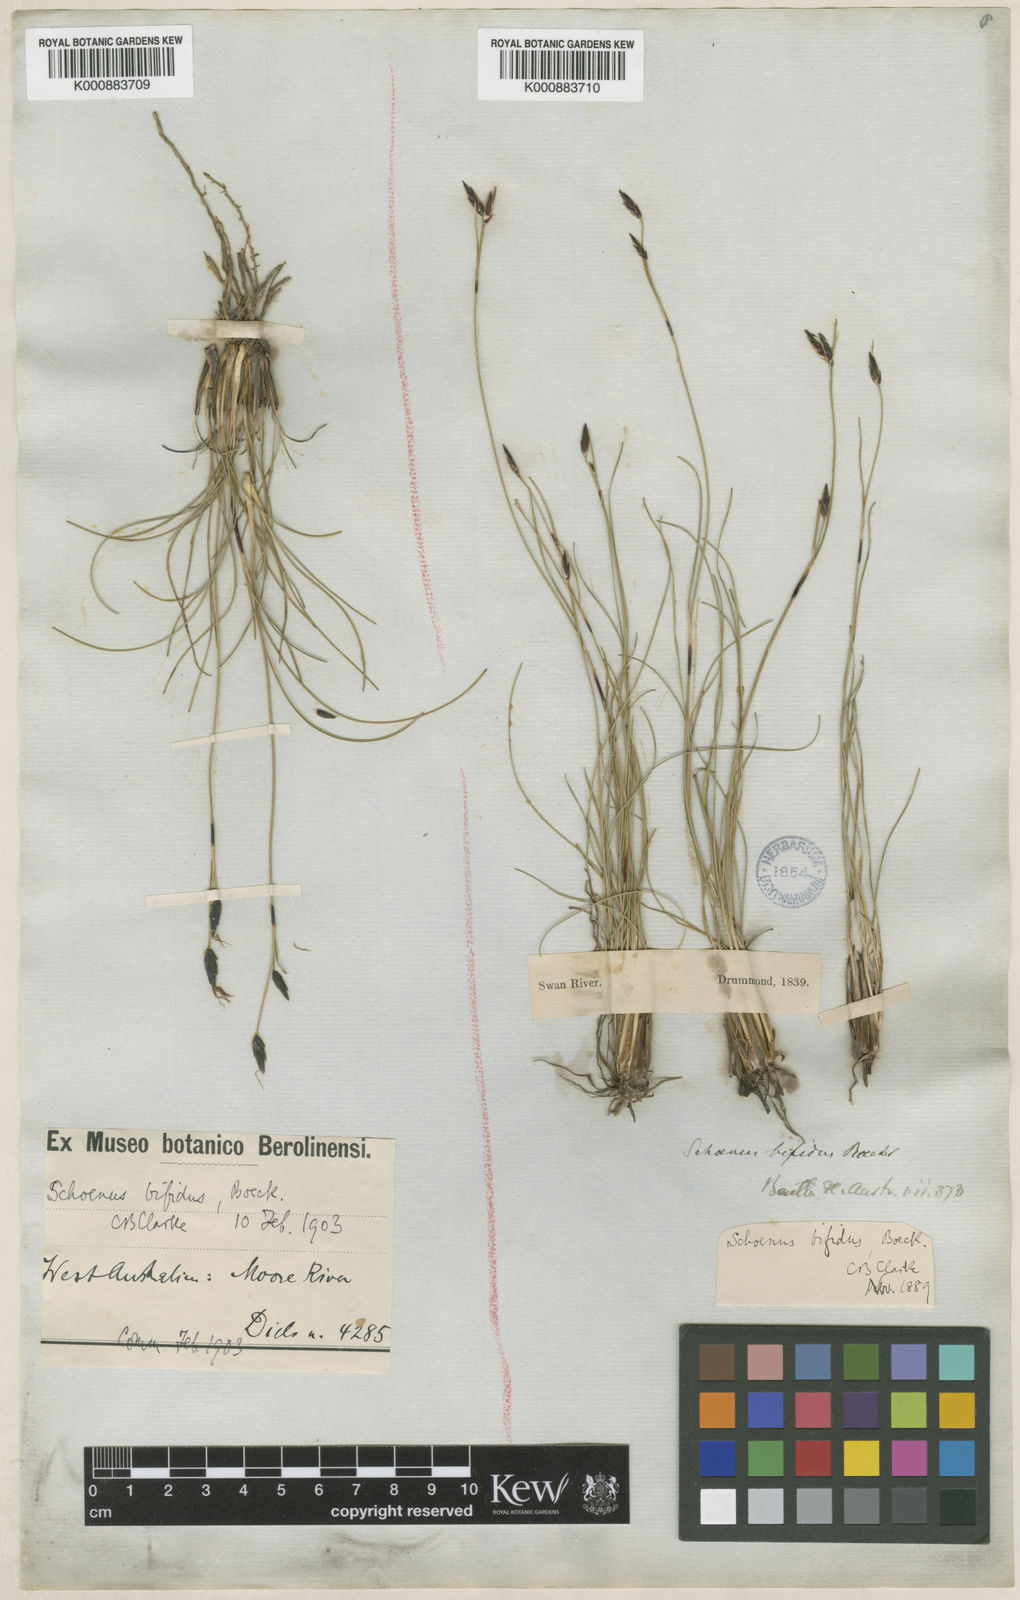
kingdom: Plantae
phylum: Tracheophyta
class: Liliopsida
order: Poales
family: Cyperaceae
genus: Schoenus
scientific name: Schoenus bifidus
